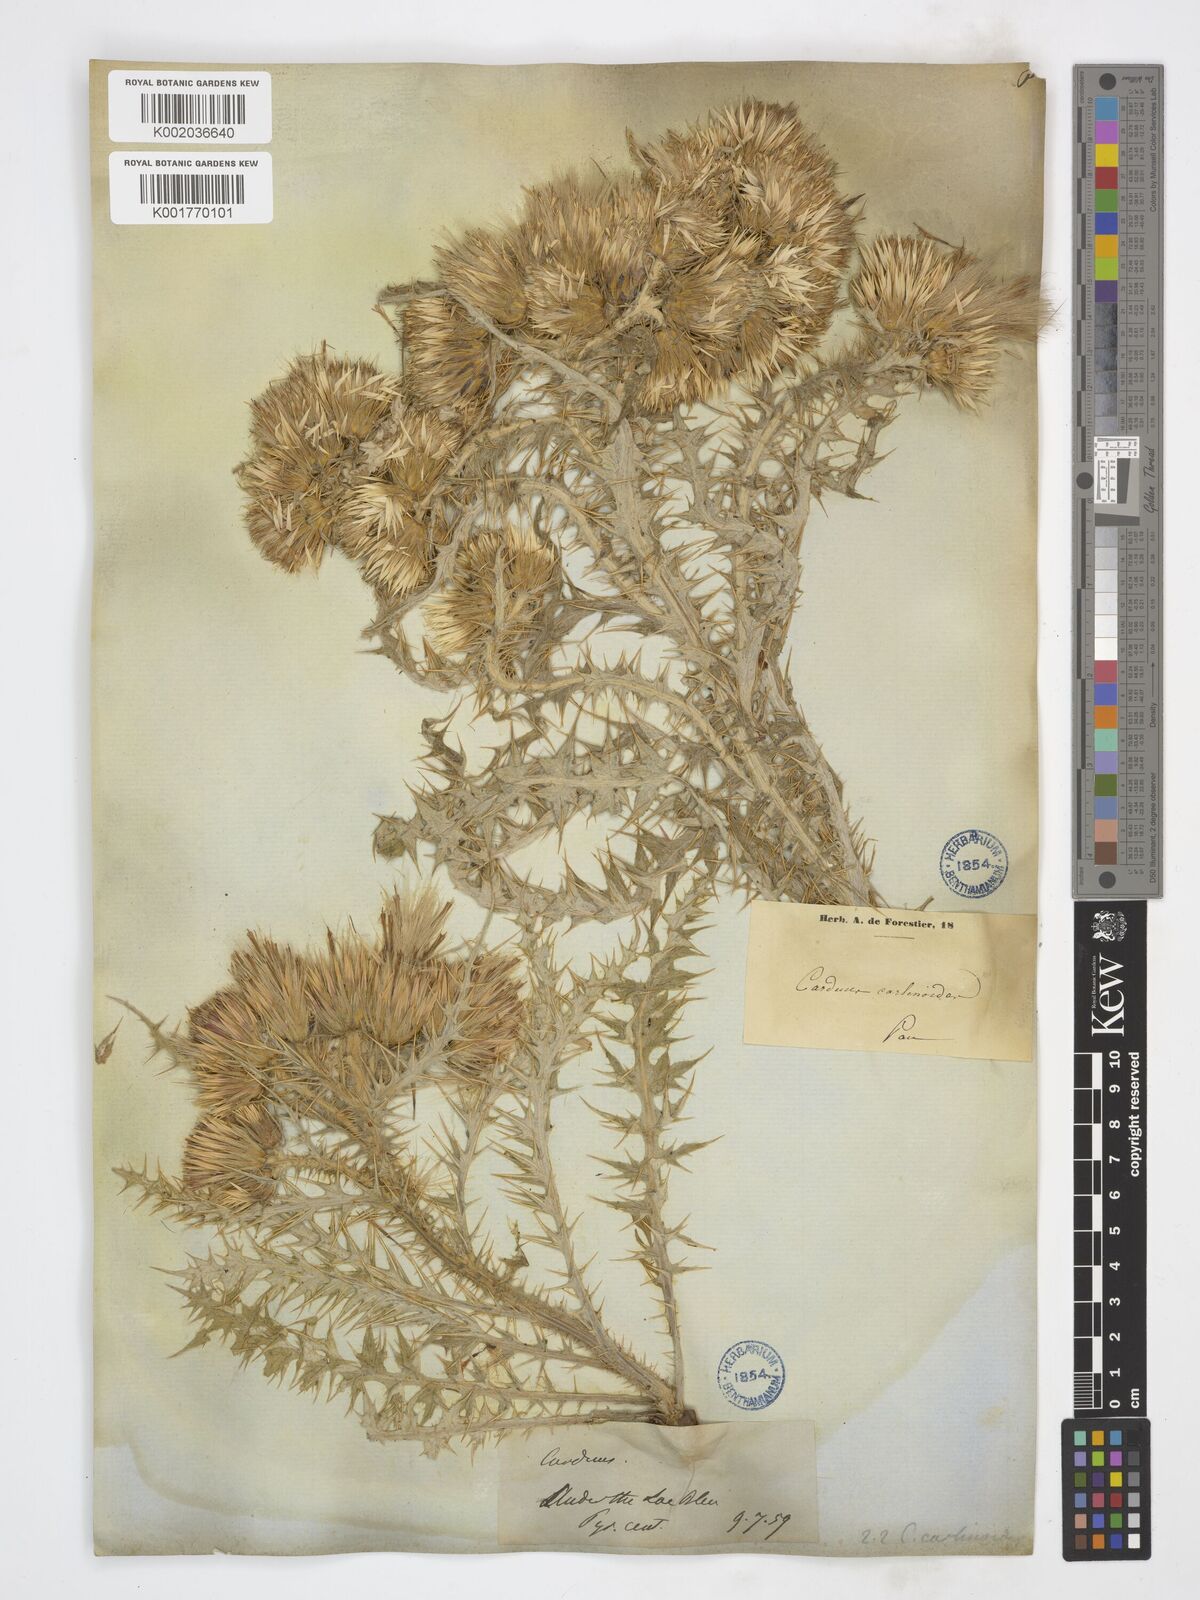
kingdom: Plantae
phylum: Tracheophyta
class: Magnoliopsida
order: Asterales
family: Asteraceae
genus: Carduus
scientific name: Carduus carlinoides
